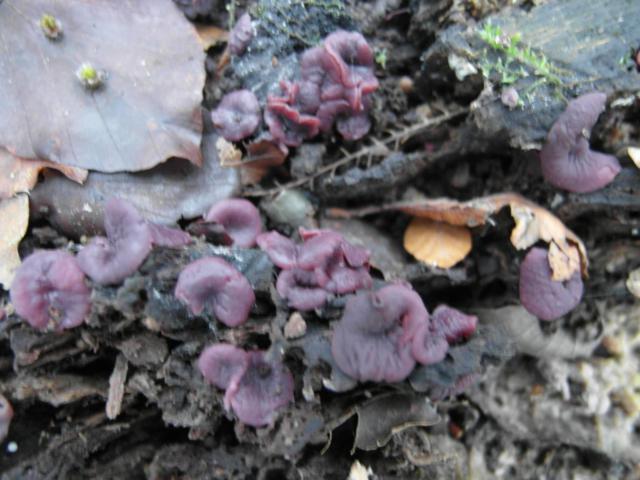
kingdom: Fungi
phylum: Ascomycota
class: Leotiomycetes
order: Helotiales
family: Gelatinodiscaceae
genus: Ascocoryne
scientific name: Ascocoryne cylichnium
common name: stor sejskive
